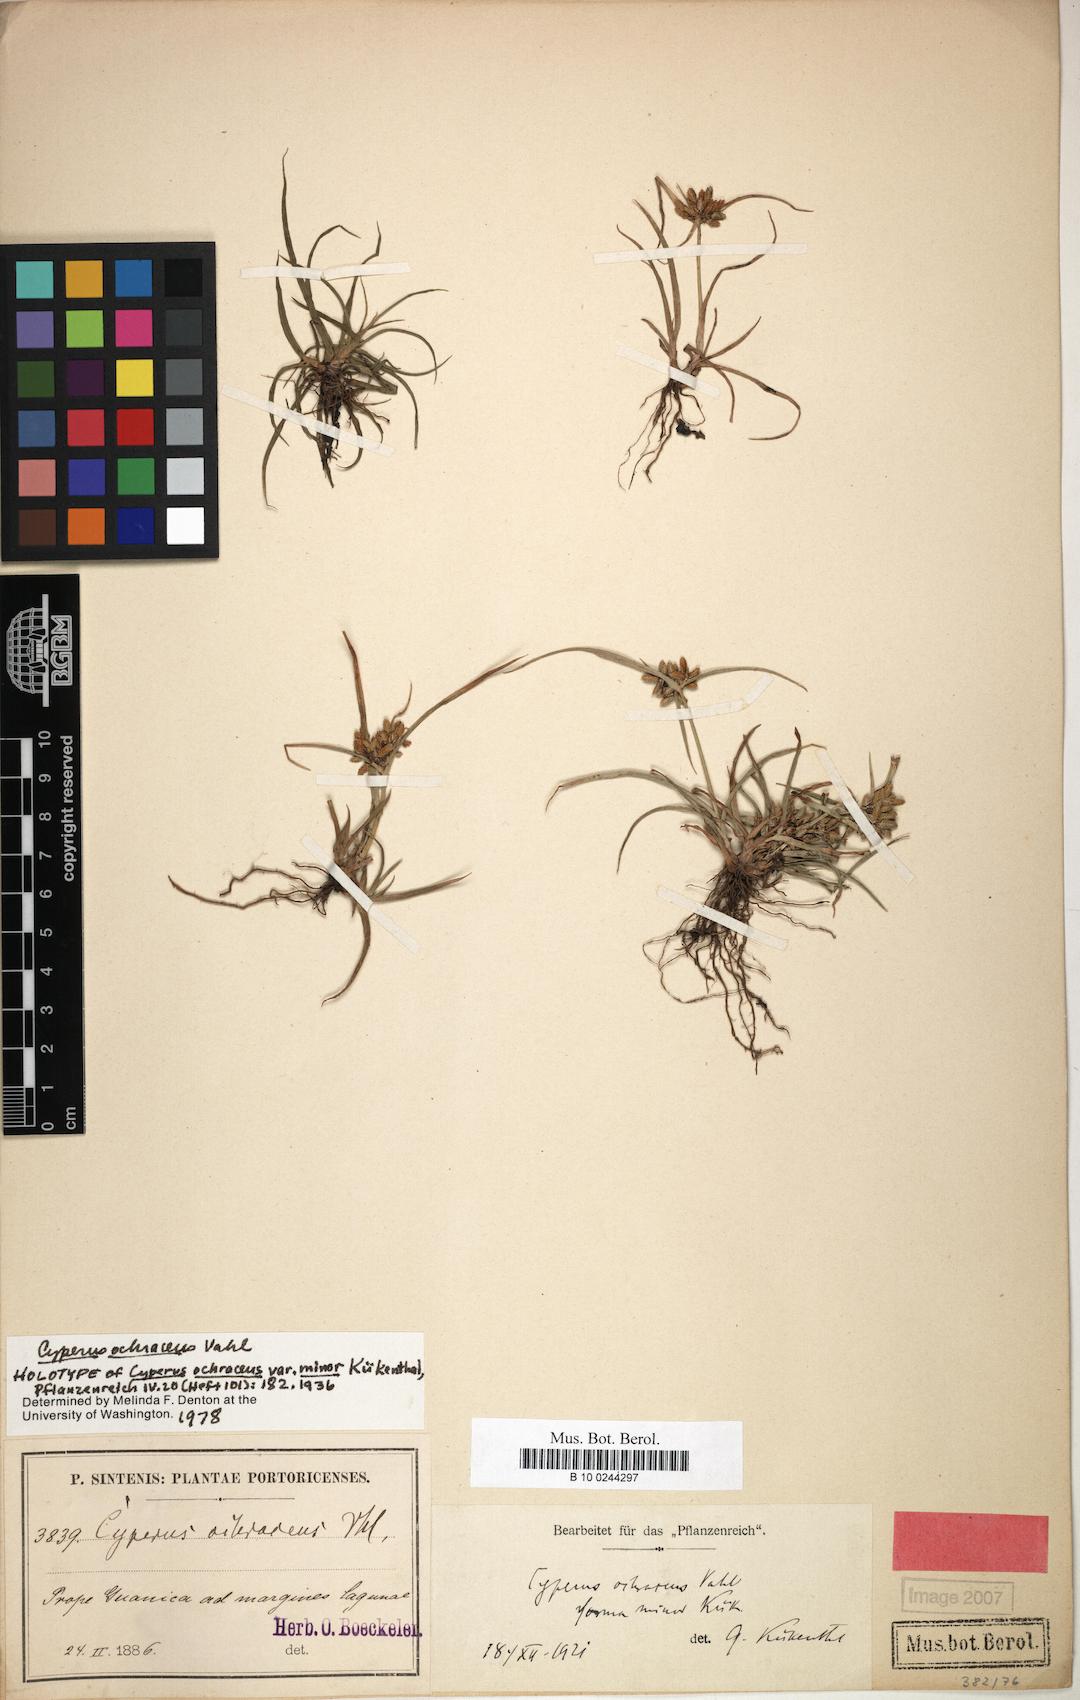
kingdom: Plantae
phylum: Tracheophyta
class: Liliopsida
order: Poales
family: Cyperaceae
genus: Cyperus
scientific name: Cyperus ochraceus
